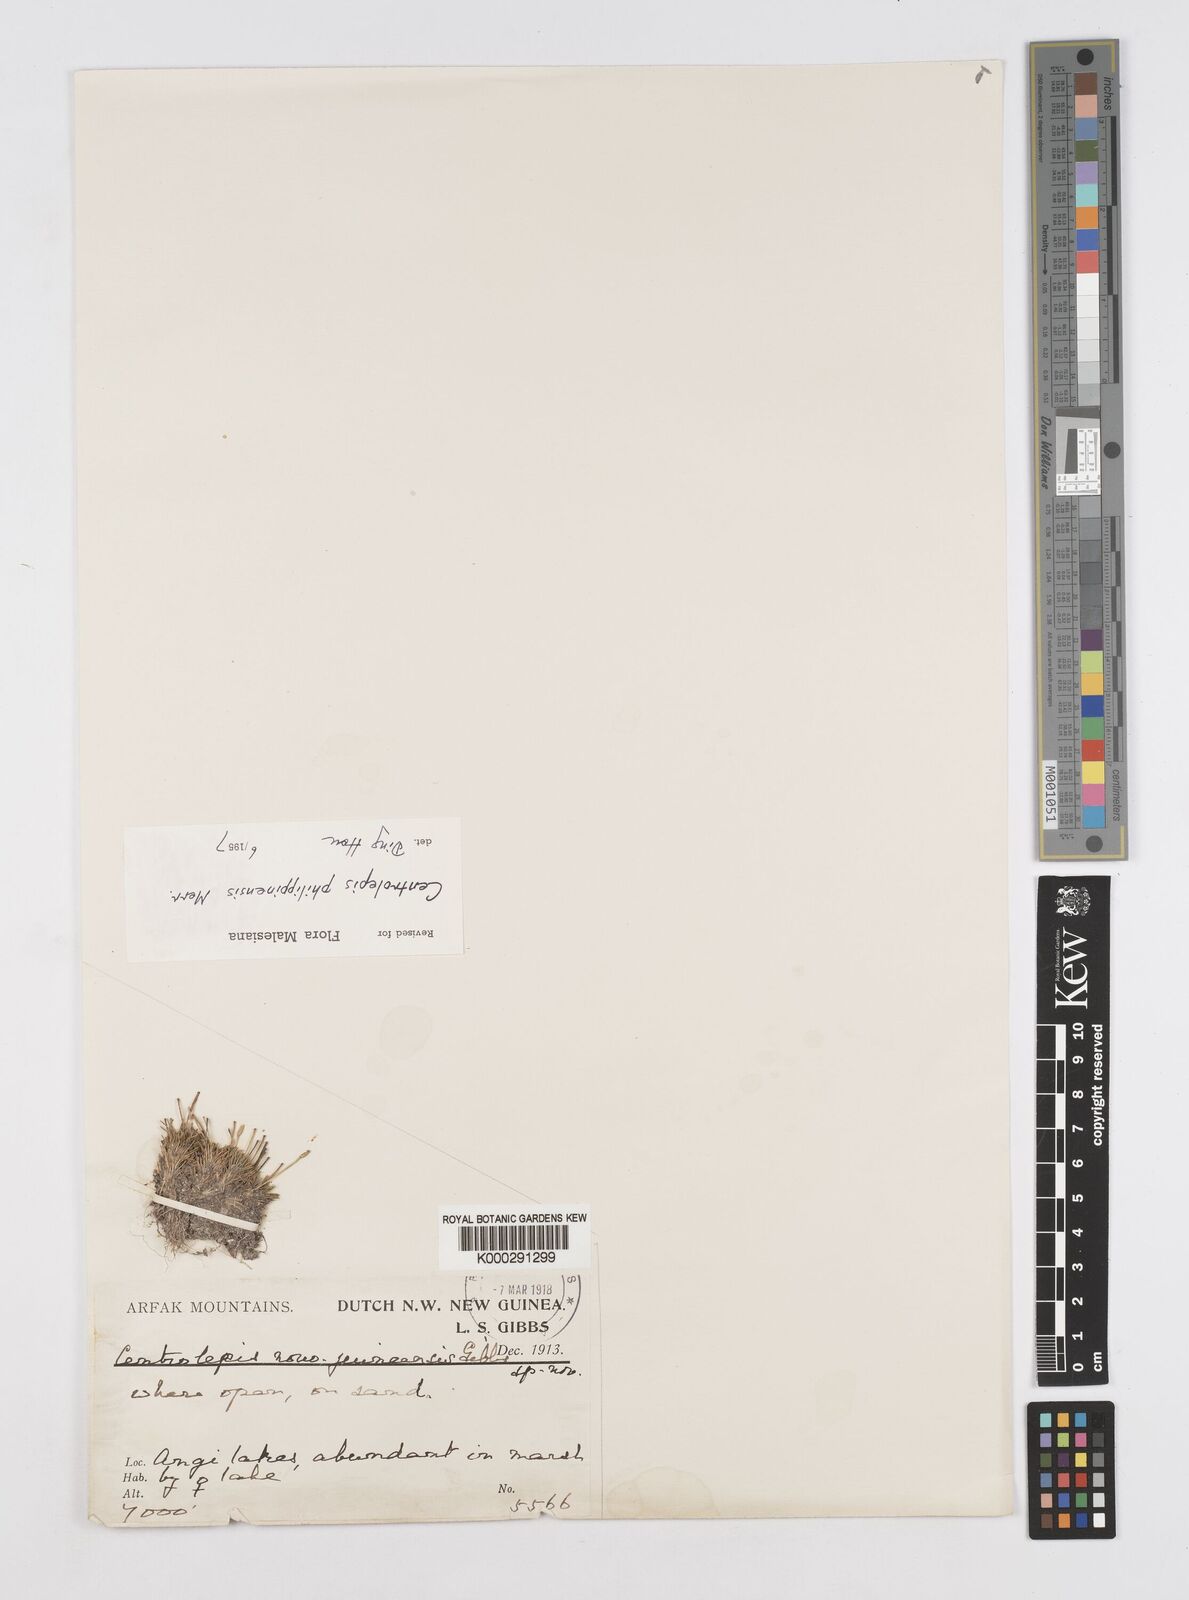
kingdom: Plantae
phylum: Tracheophyta
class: Liliopsida
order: Poales
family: Restionaceae
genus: Centrolepis
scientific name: Centrolepis philippinensis
